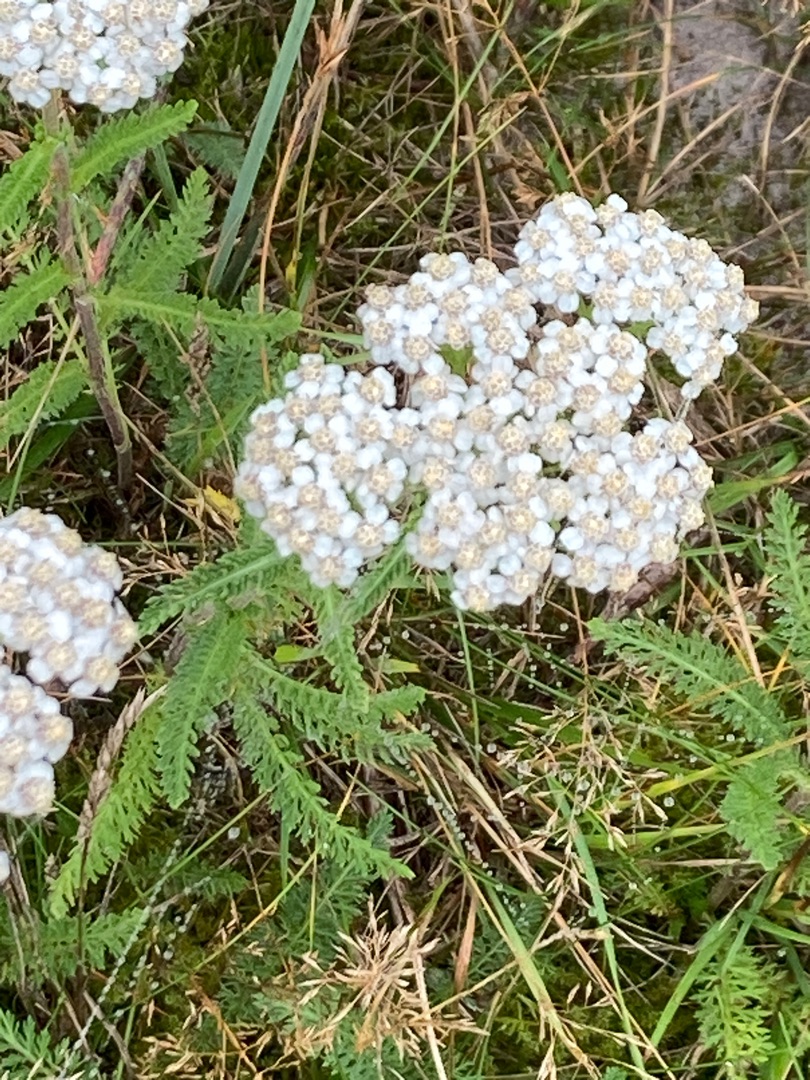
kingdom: Plantae
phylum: Tracheophyta
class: Magnoliopsida
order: Asterales
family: Asteraceae
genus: Achillea
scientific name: Achillea millefolium
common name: Almindelig røllike
